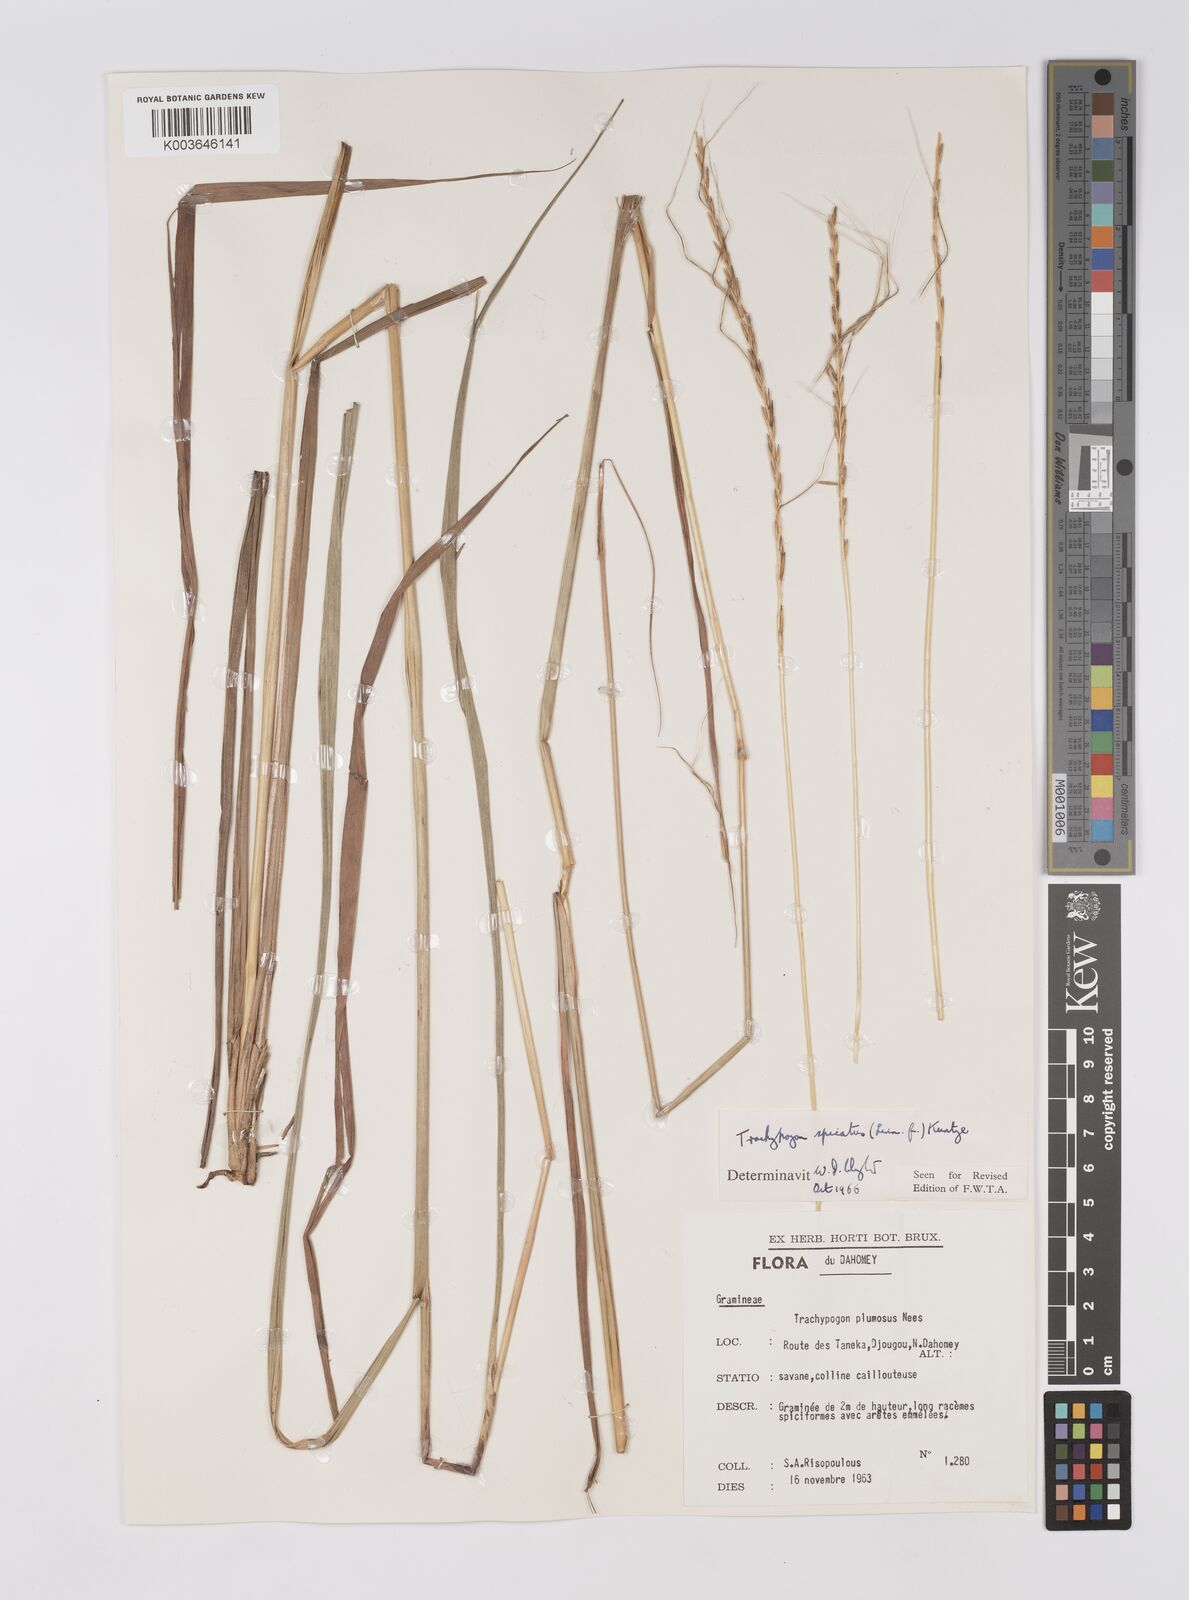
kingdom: Plantae
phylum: Tracheophyta
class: Liliopsida
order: Poales
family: Poaceae
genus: Trachypogon
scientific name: Trachypogon spicatus
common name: Crinkle-awn
